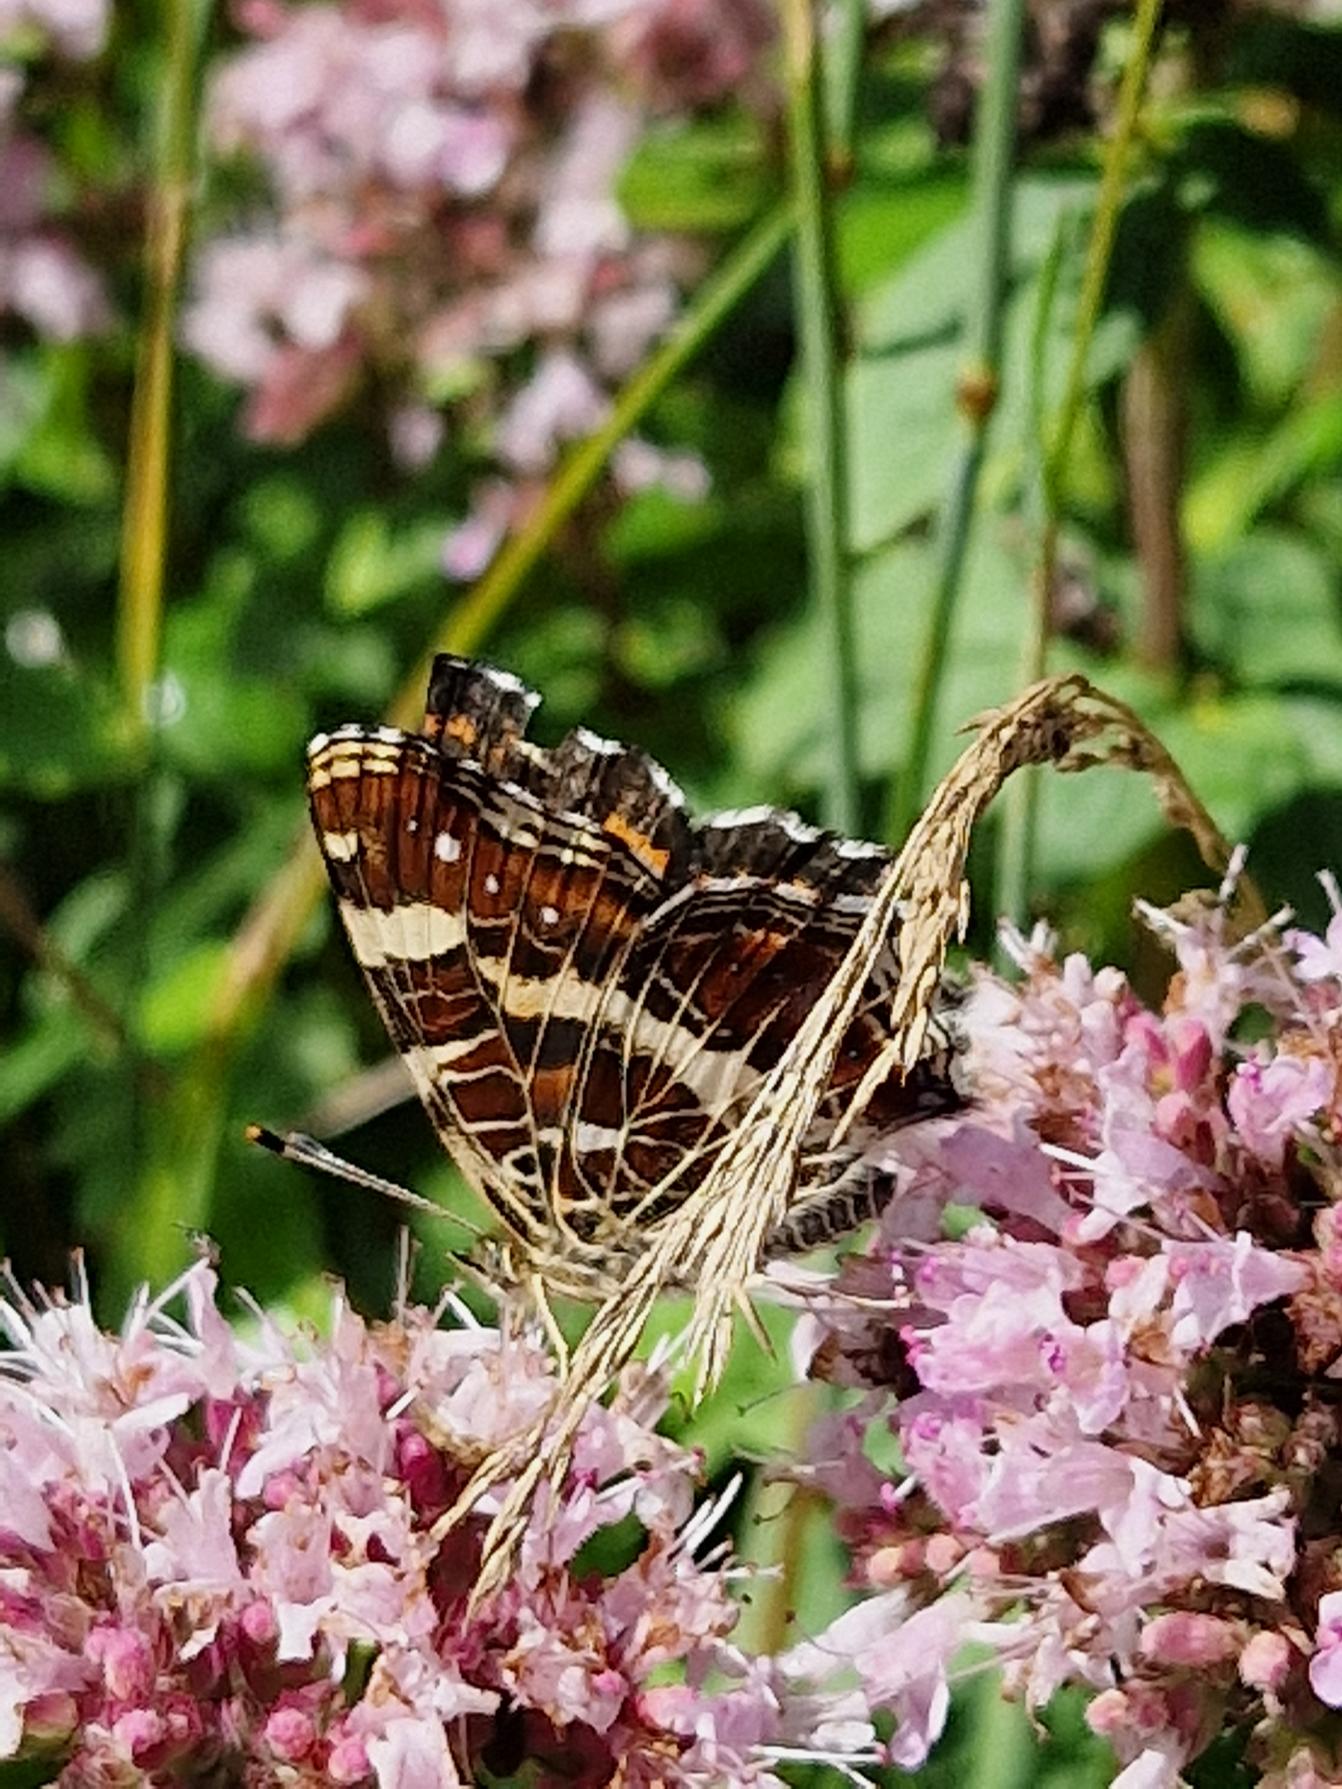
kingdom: Animalia
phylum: Arthropoda
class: Insecta
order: Lepidoptera
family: Nymphalidae
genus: Araschnia
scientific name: Araschnia levana
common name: Nældesommerfugl
